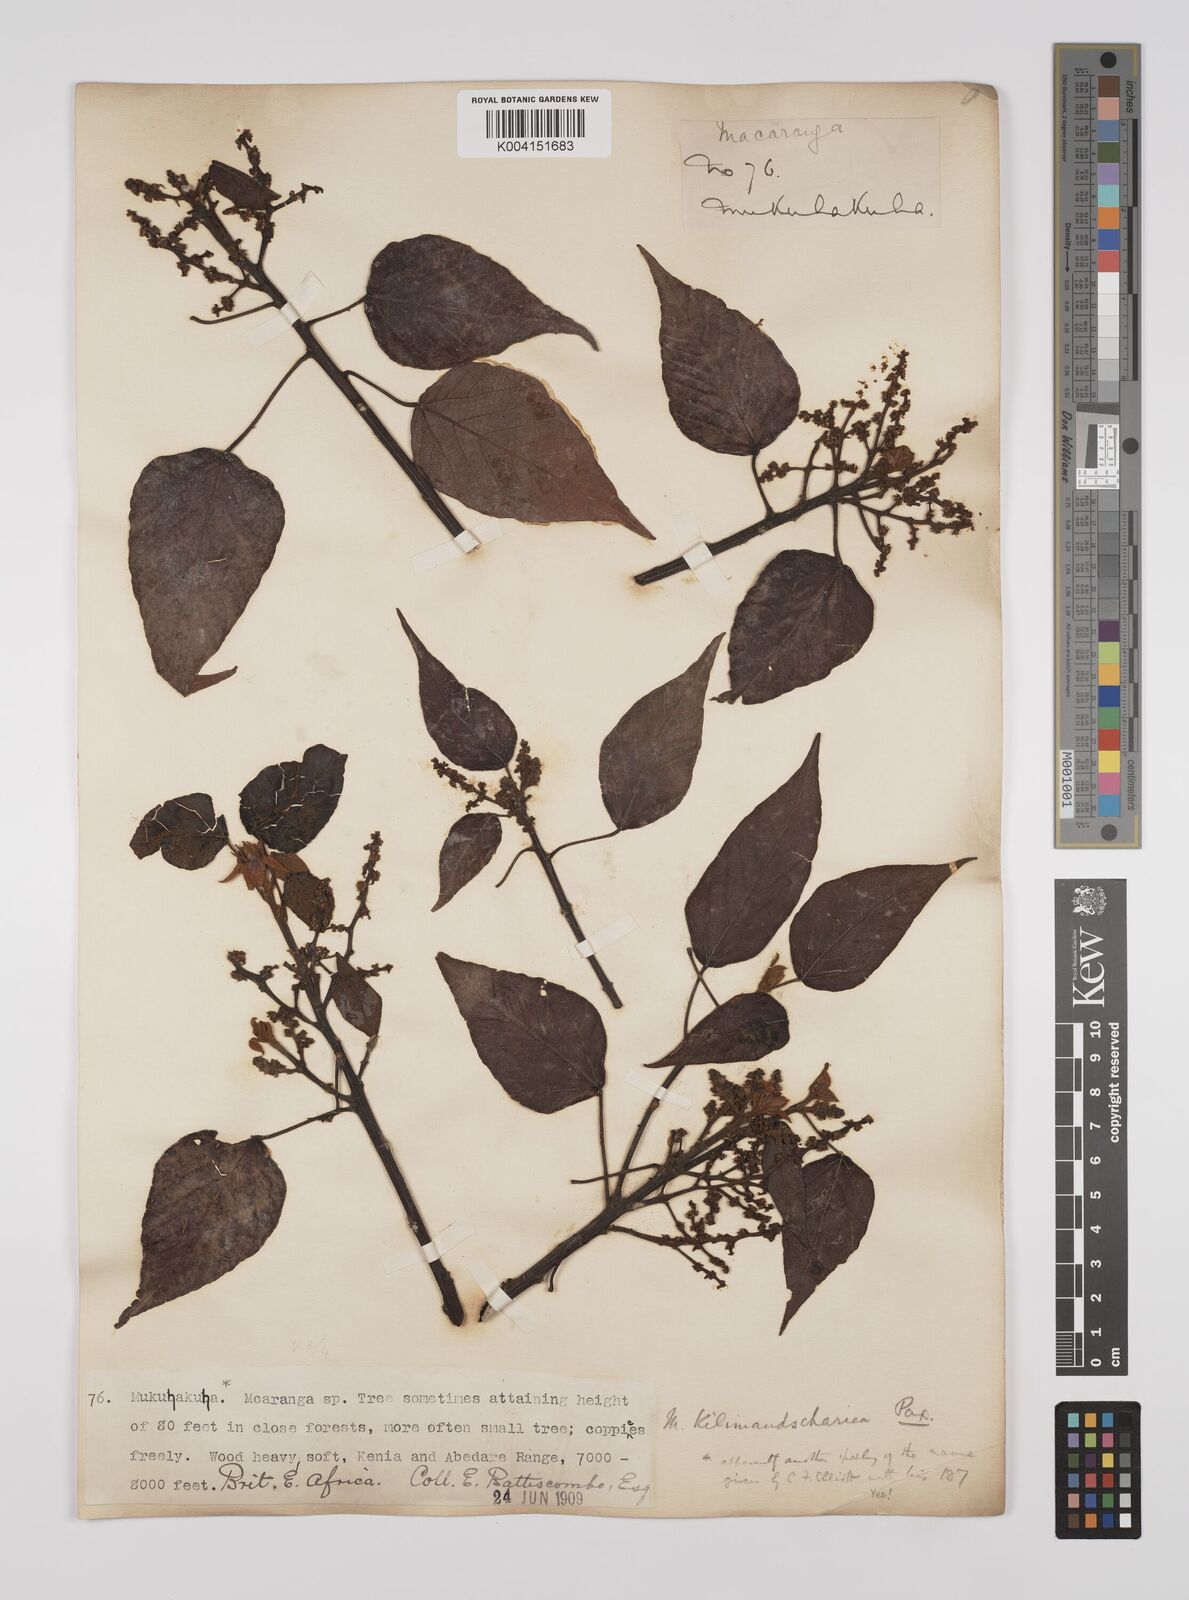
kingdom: Plantae
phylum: Tracheophyta
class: Magnoliopsida
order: Malpighiales
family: Euphorbiaceae
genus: Macaranga
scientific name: Macaranga kilimandscharica
